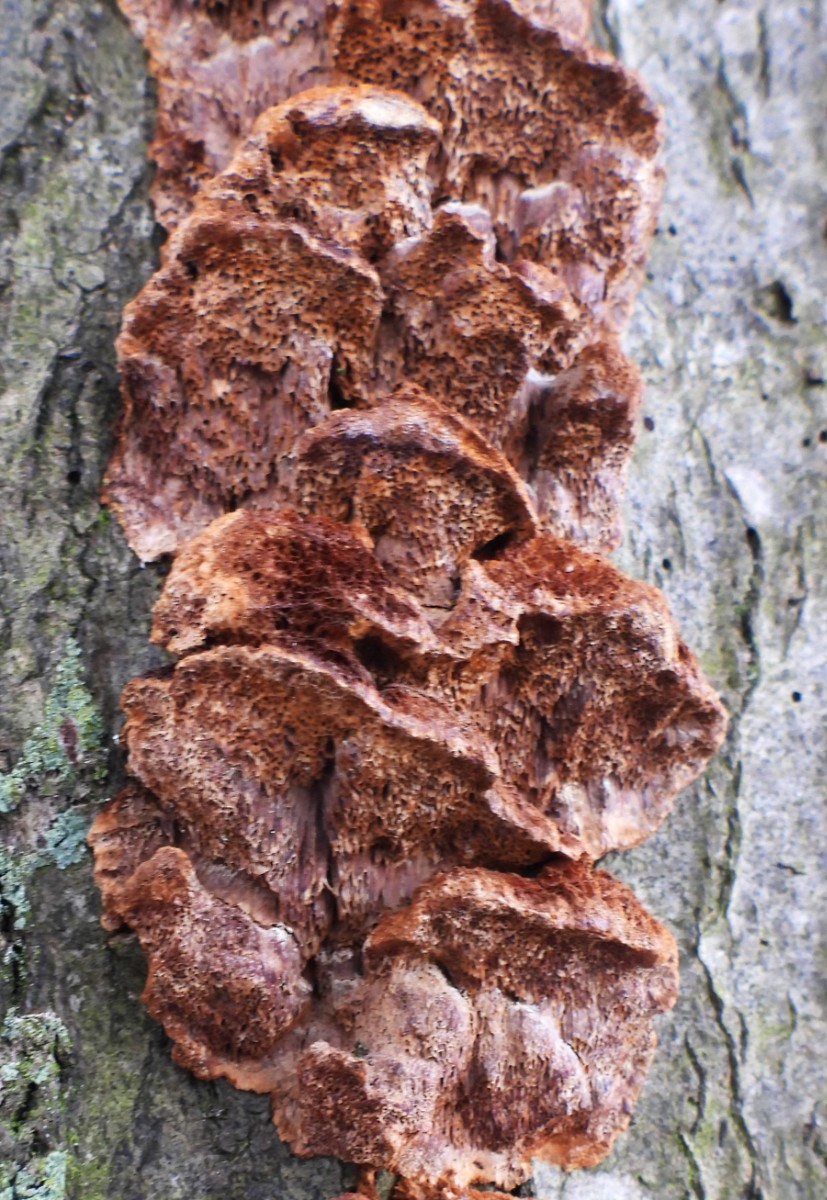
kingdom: Fungi
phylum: Basidiomycota
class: Agaricomycetes
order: Hymenochaetales
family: Hymenochaetaceae
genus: Mensularia
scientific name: Mensularia nodulosa
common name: bøge-spejlporesvamp
